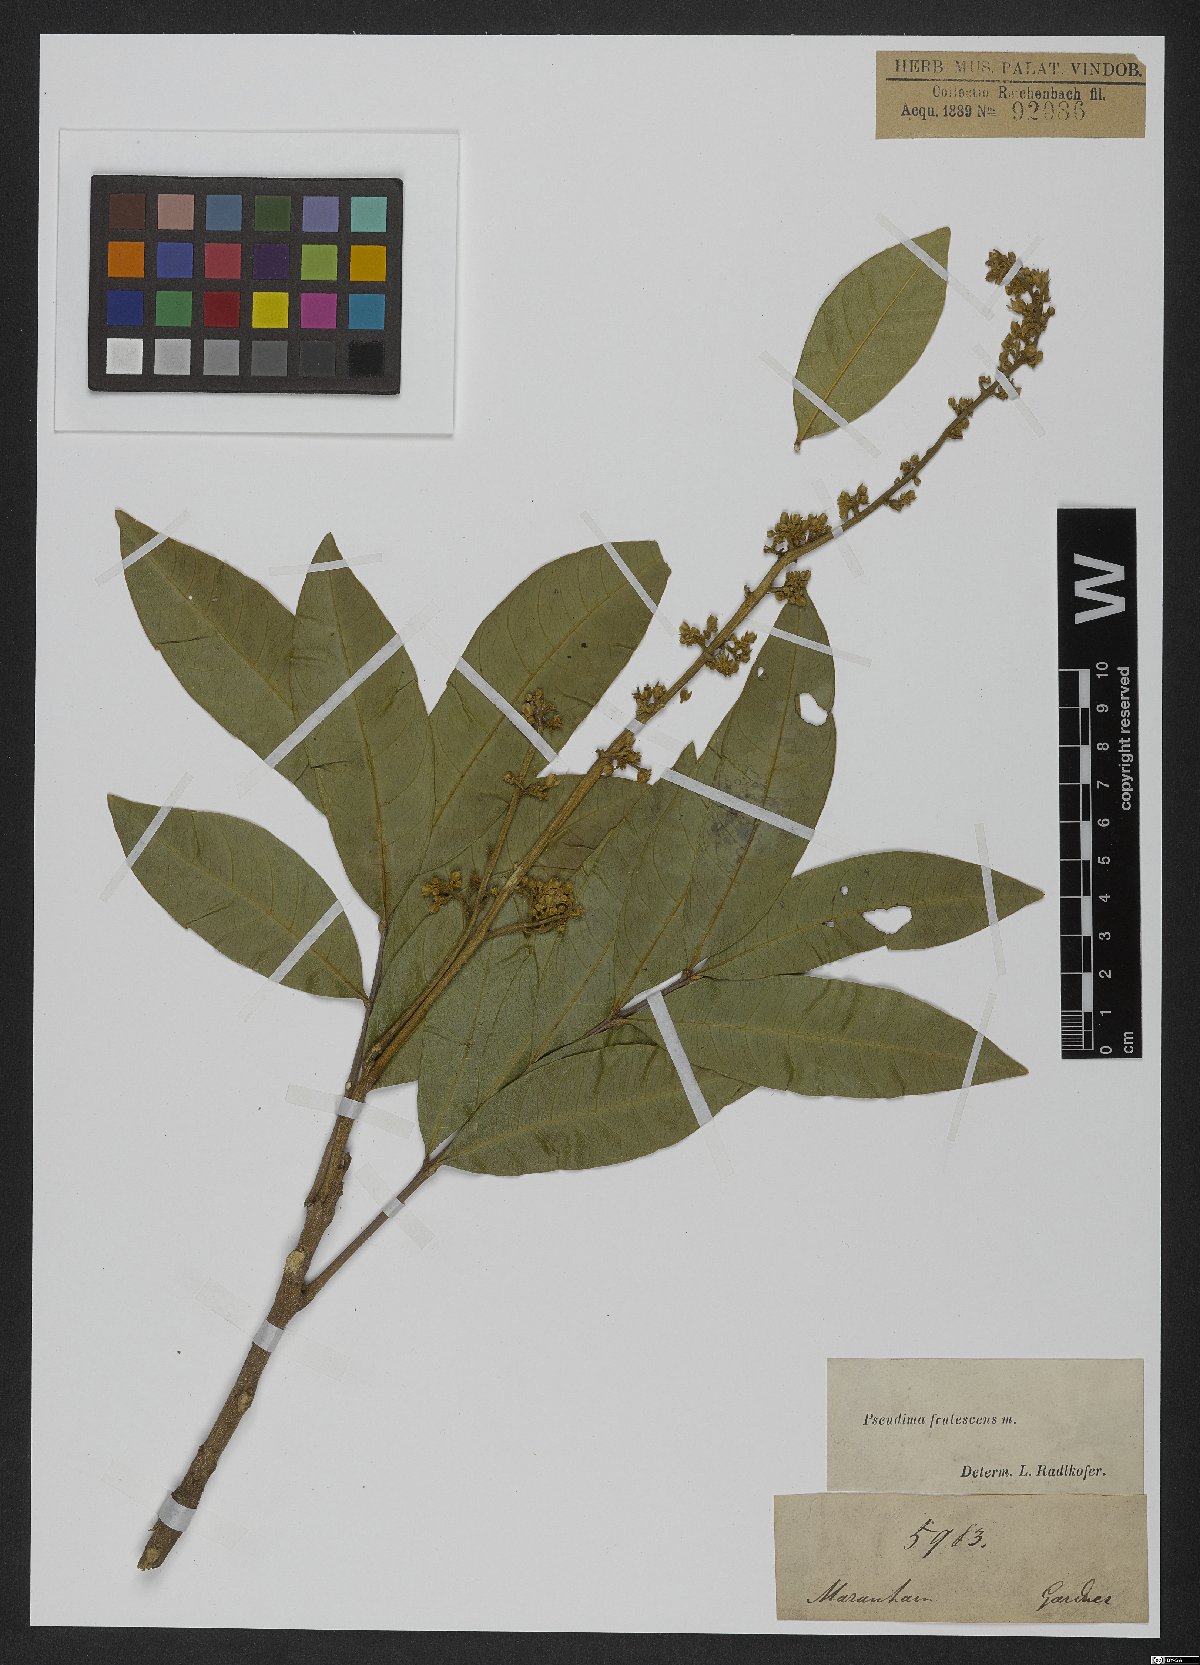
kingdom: Plantae
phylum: Tracheophyta
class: Magnoliopsida
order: Sapindales
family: Sapindaceae
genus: Pseudima
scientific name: Pseudima frutescens
